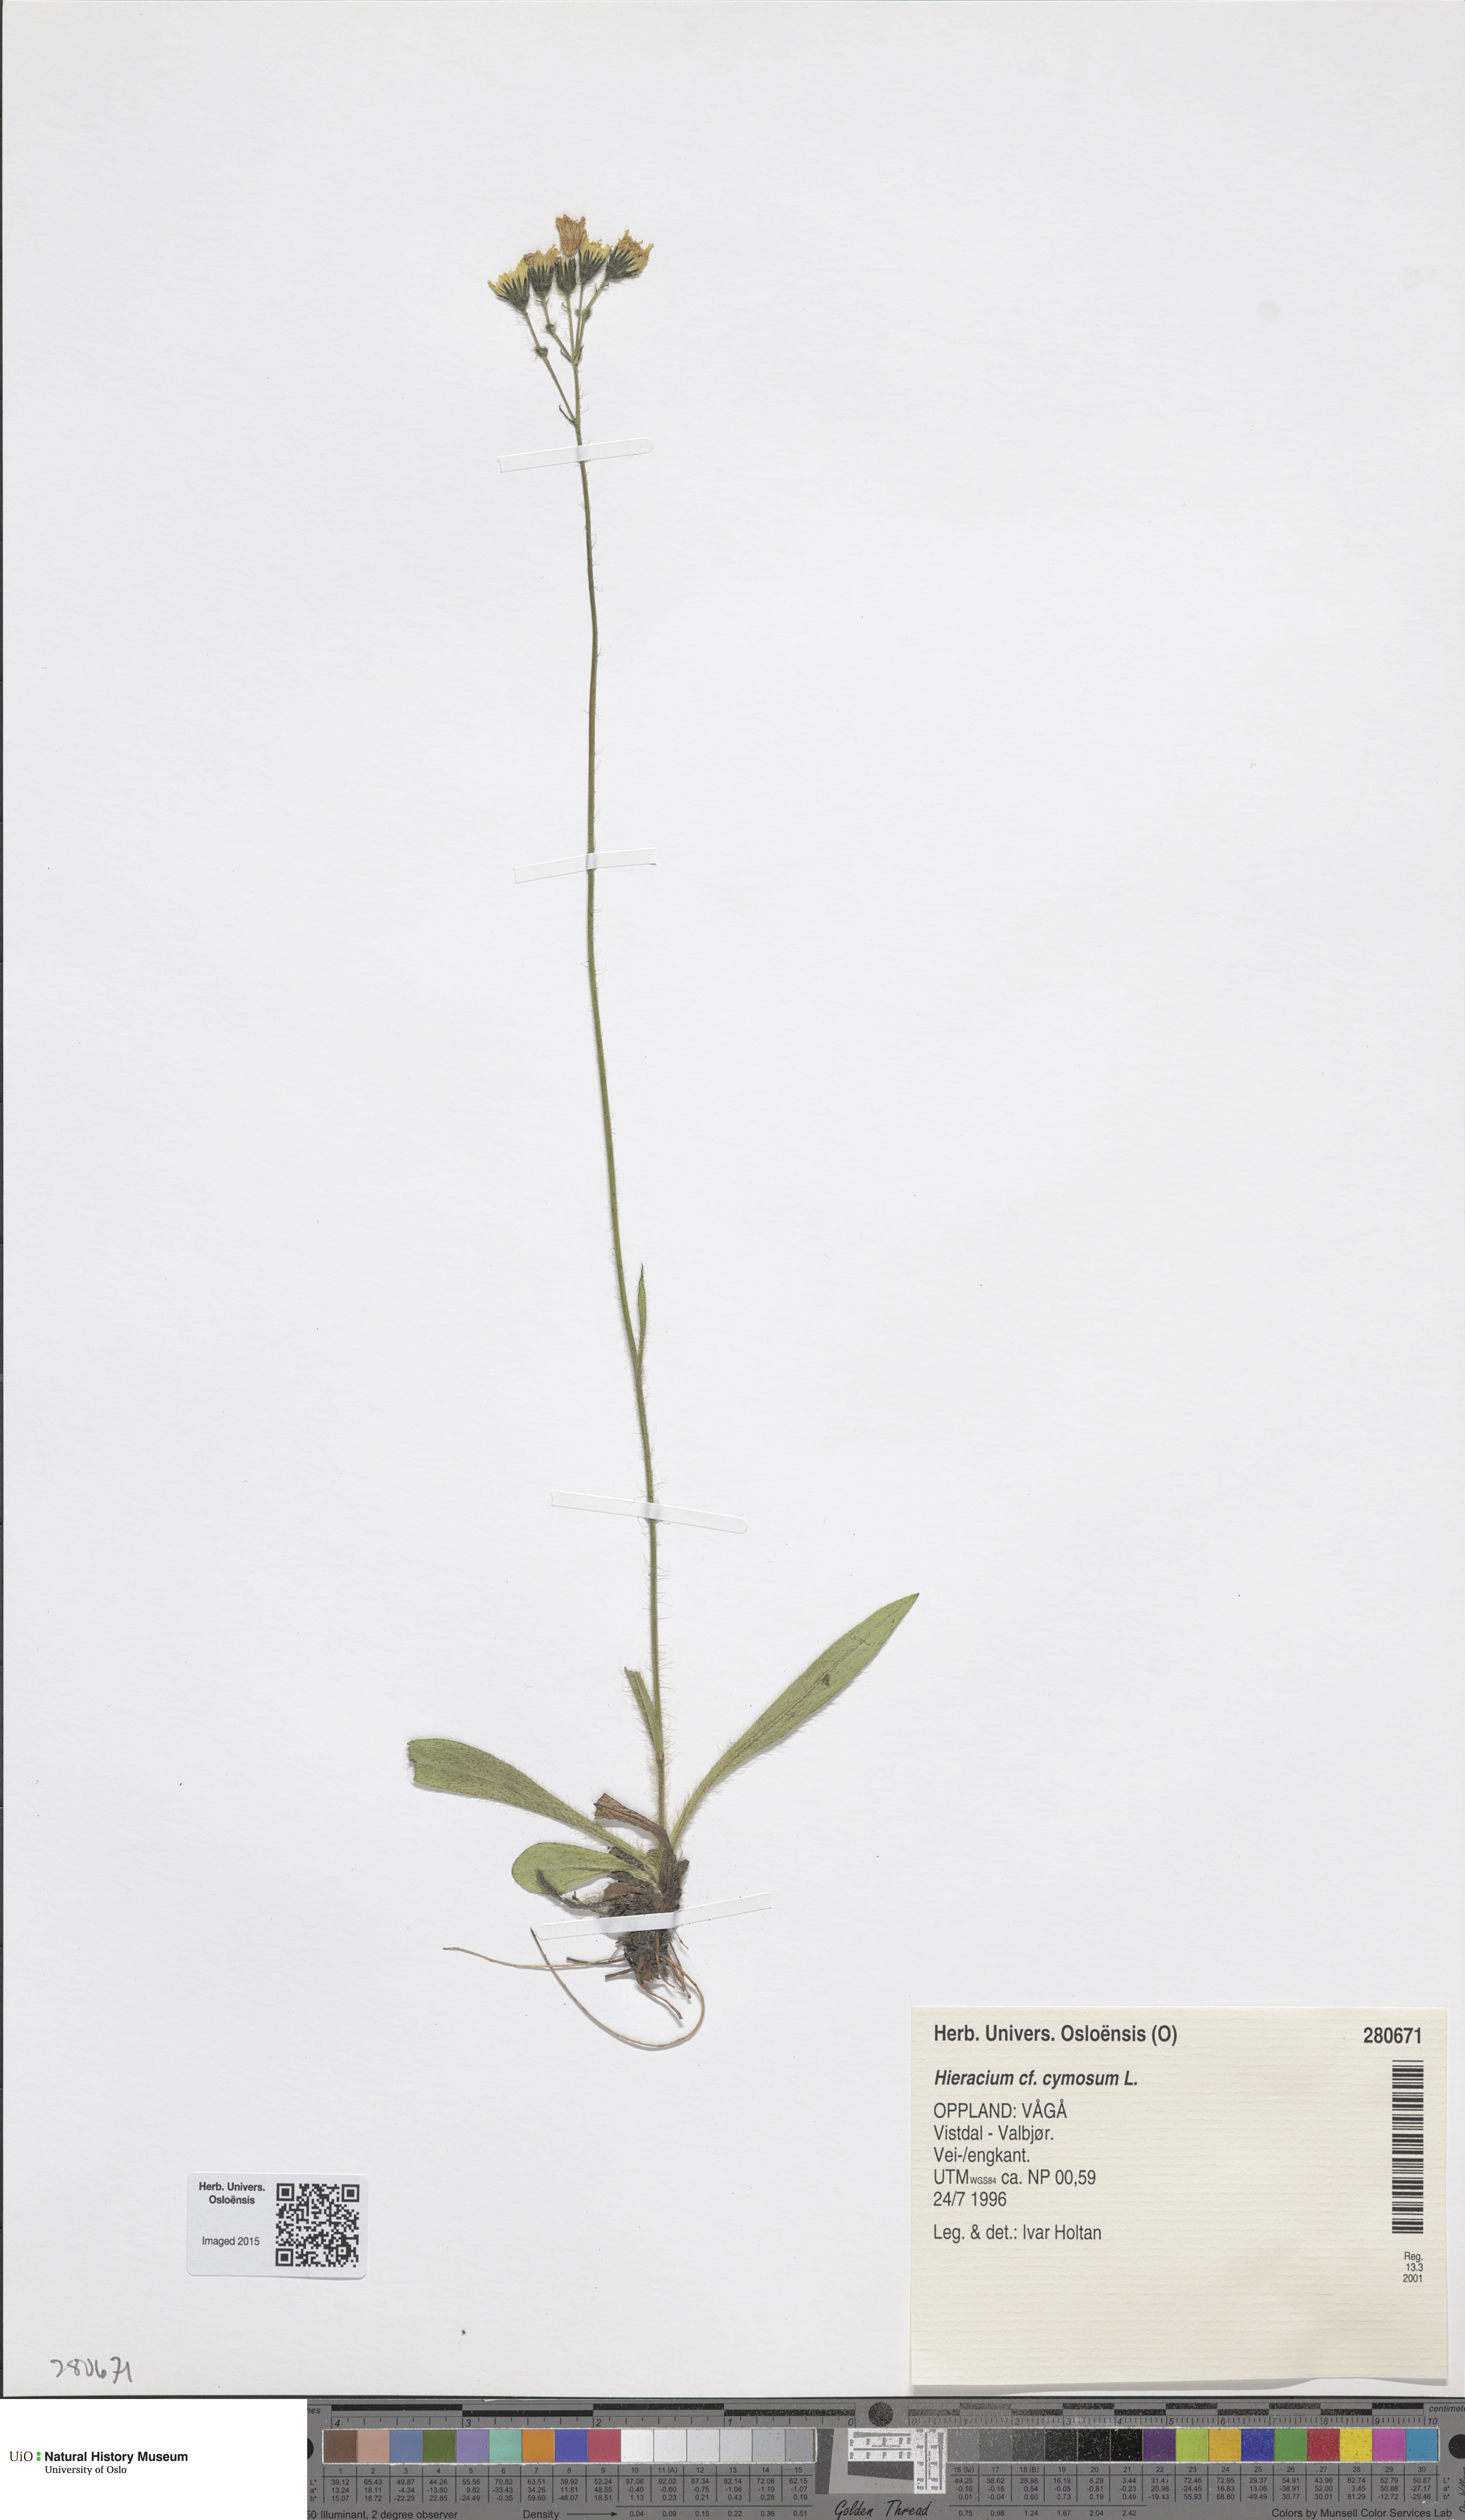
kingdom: Plantae
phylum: Tracheophyta
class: Magnoliopsida
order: Asterales
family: Asteraceae
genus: Pilosella
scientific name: Pilosella cymosa
